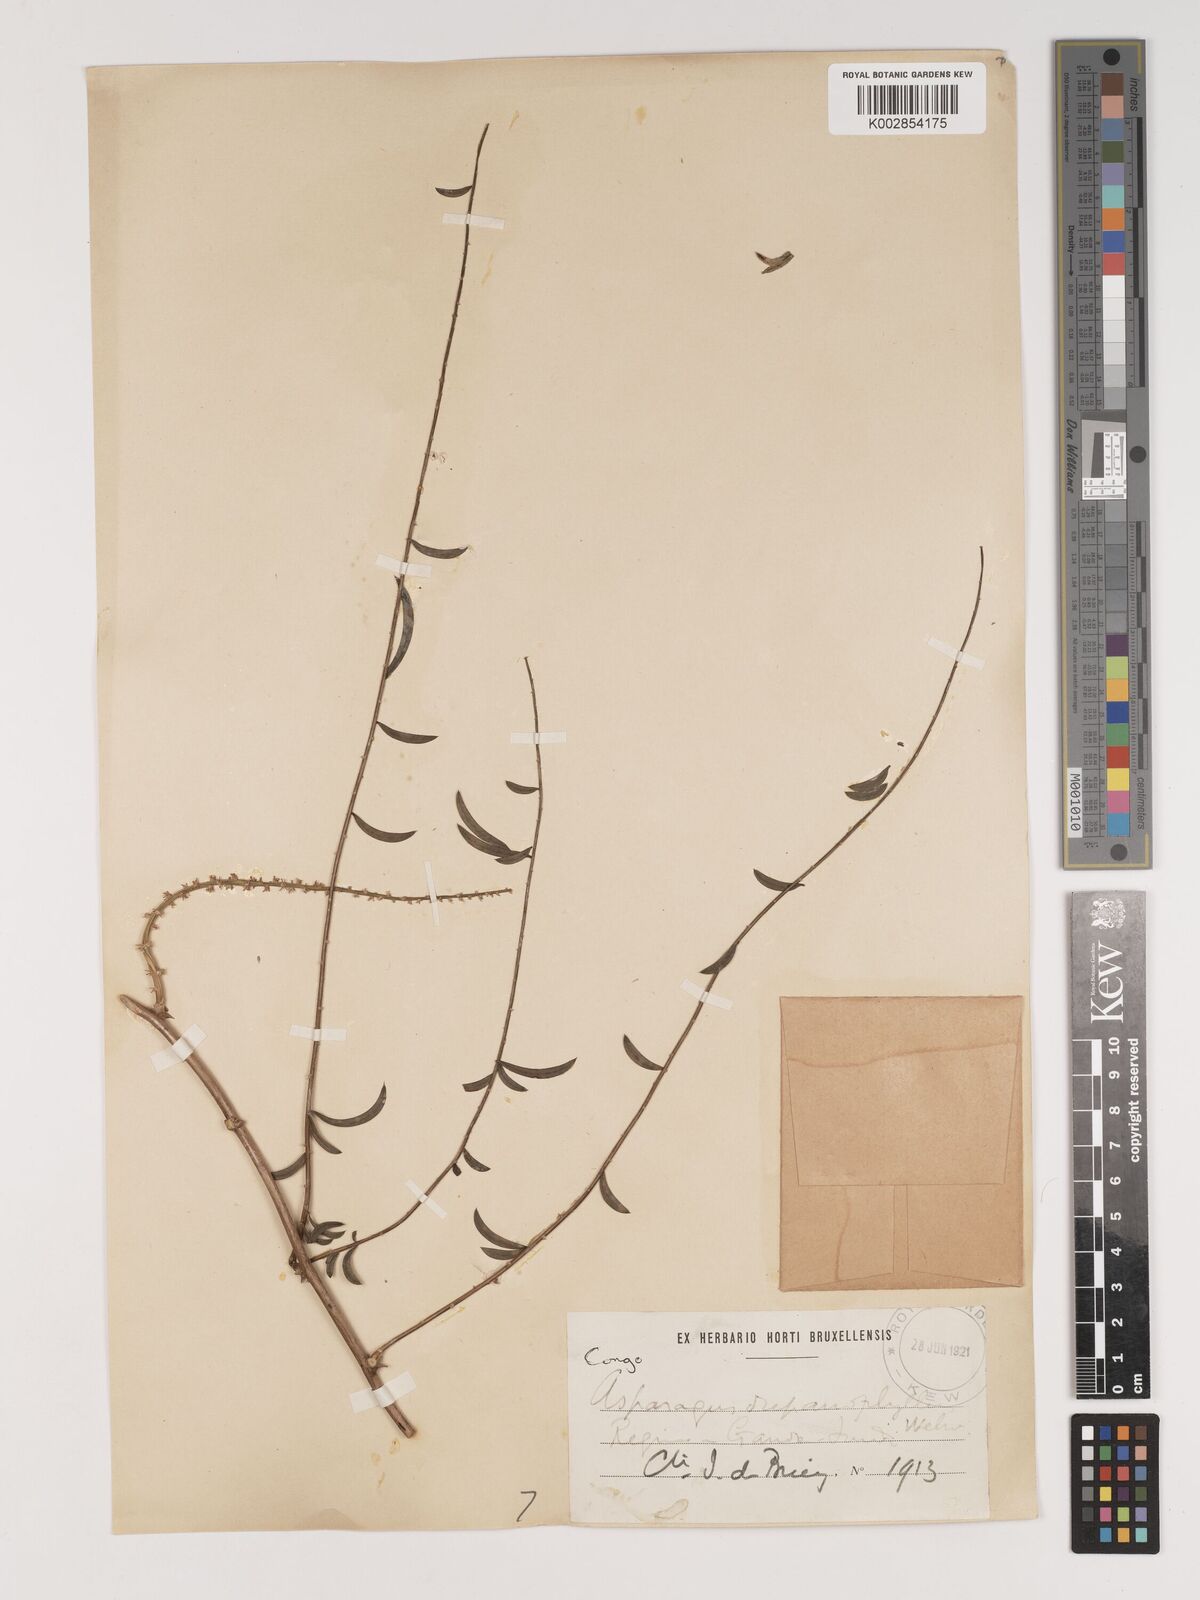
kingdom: Plantae
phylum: Tracheophyta
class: Liliopsida
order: Asparagales
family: Asparagaceae
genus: Asparagus
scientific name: Asparagus drepanophyllus
